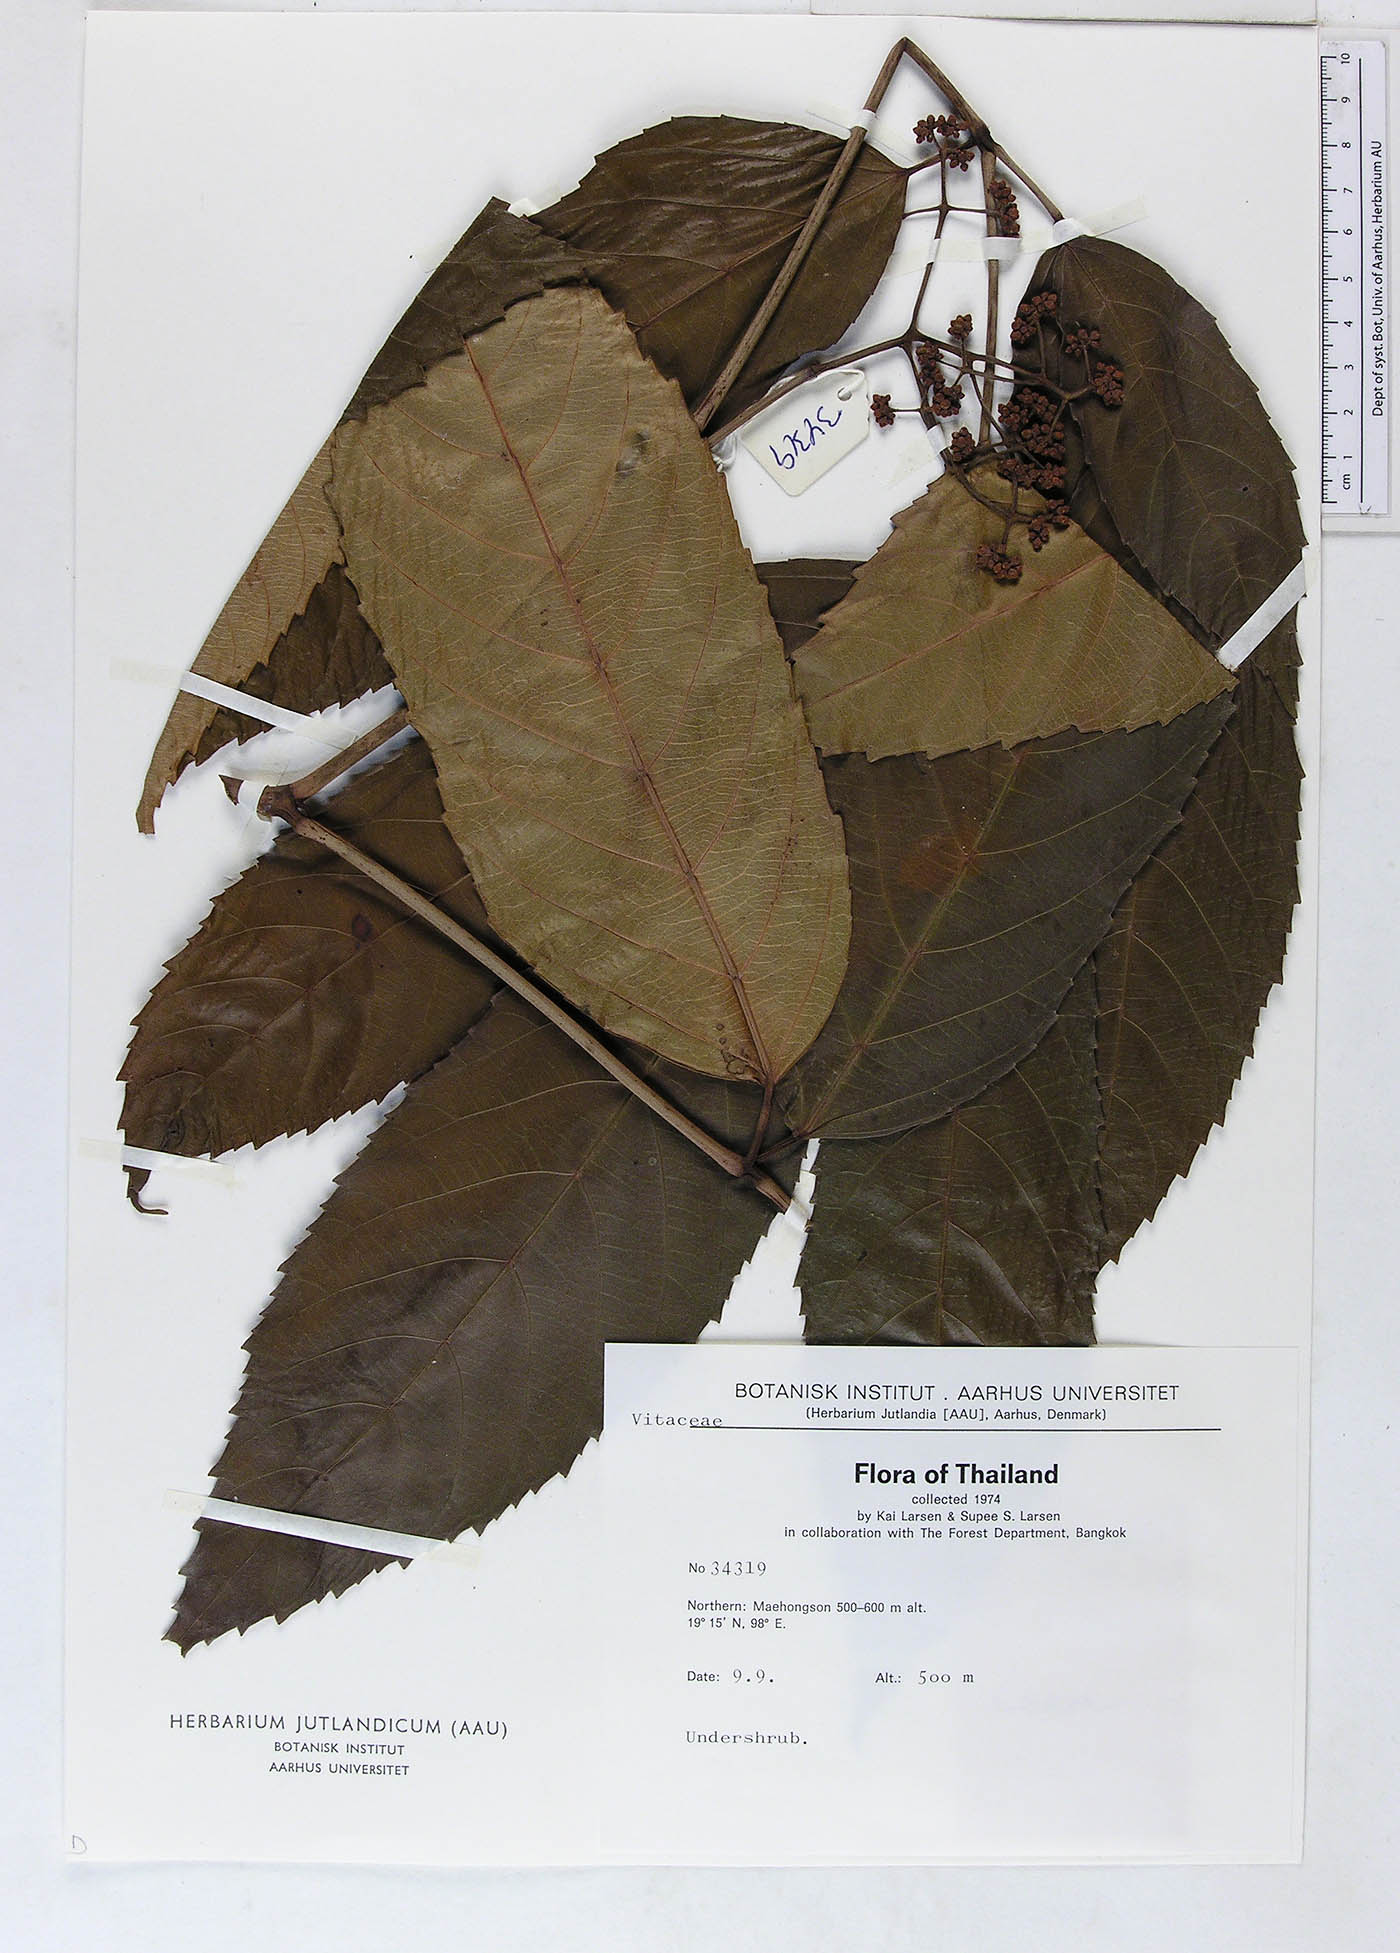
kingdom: Plantae
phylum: Tracheophyta
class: Magnoliopsida
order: Vitales
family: Vitaceae
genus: Leea
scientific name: Leea guineensis
